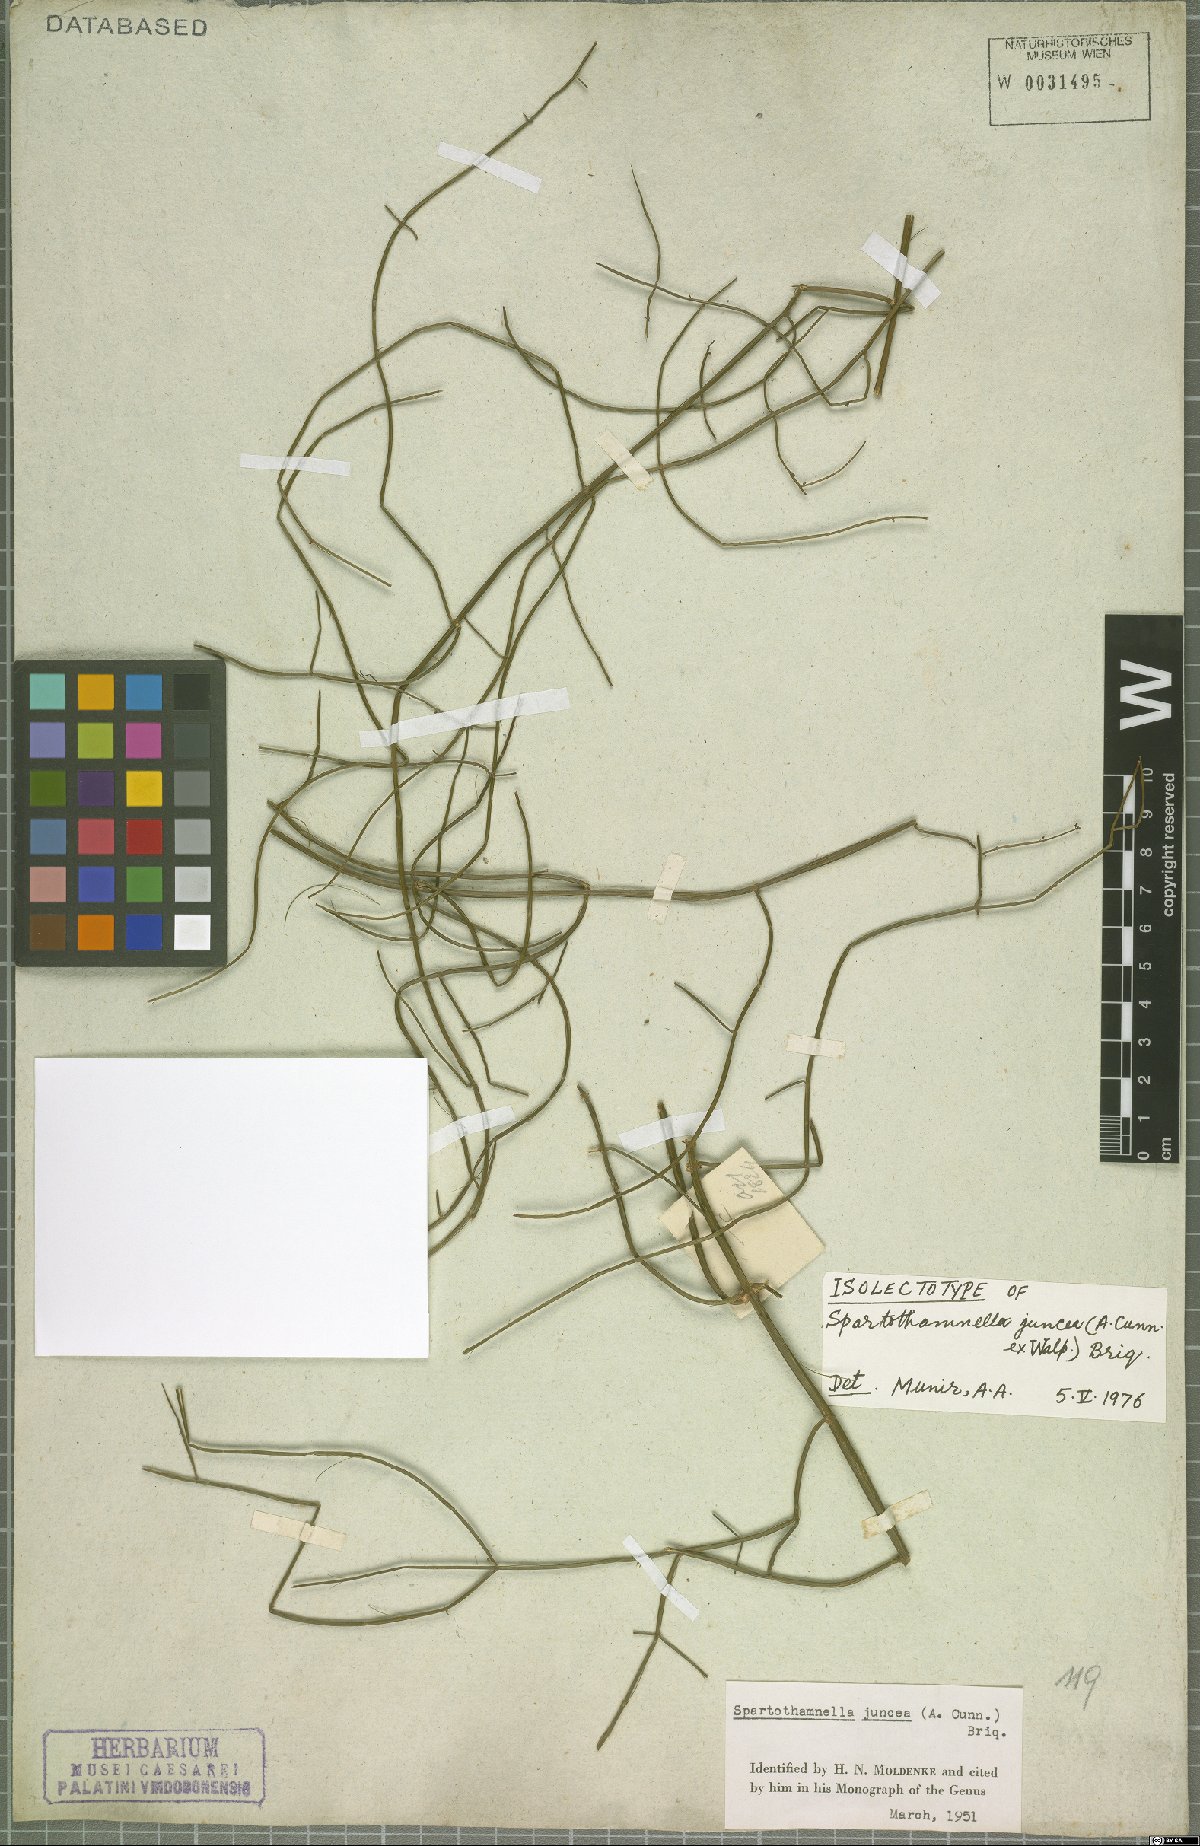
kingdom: Plantae
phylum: Tracheophyta
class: Magnoliopsida
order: Lamiales
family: Lamiaceae
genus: Teucrium
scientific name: Teucrium junceum
